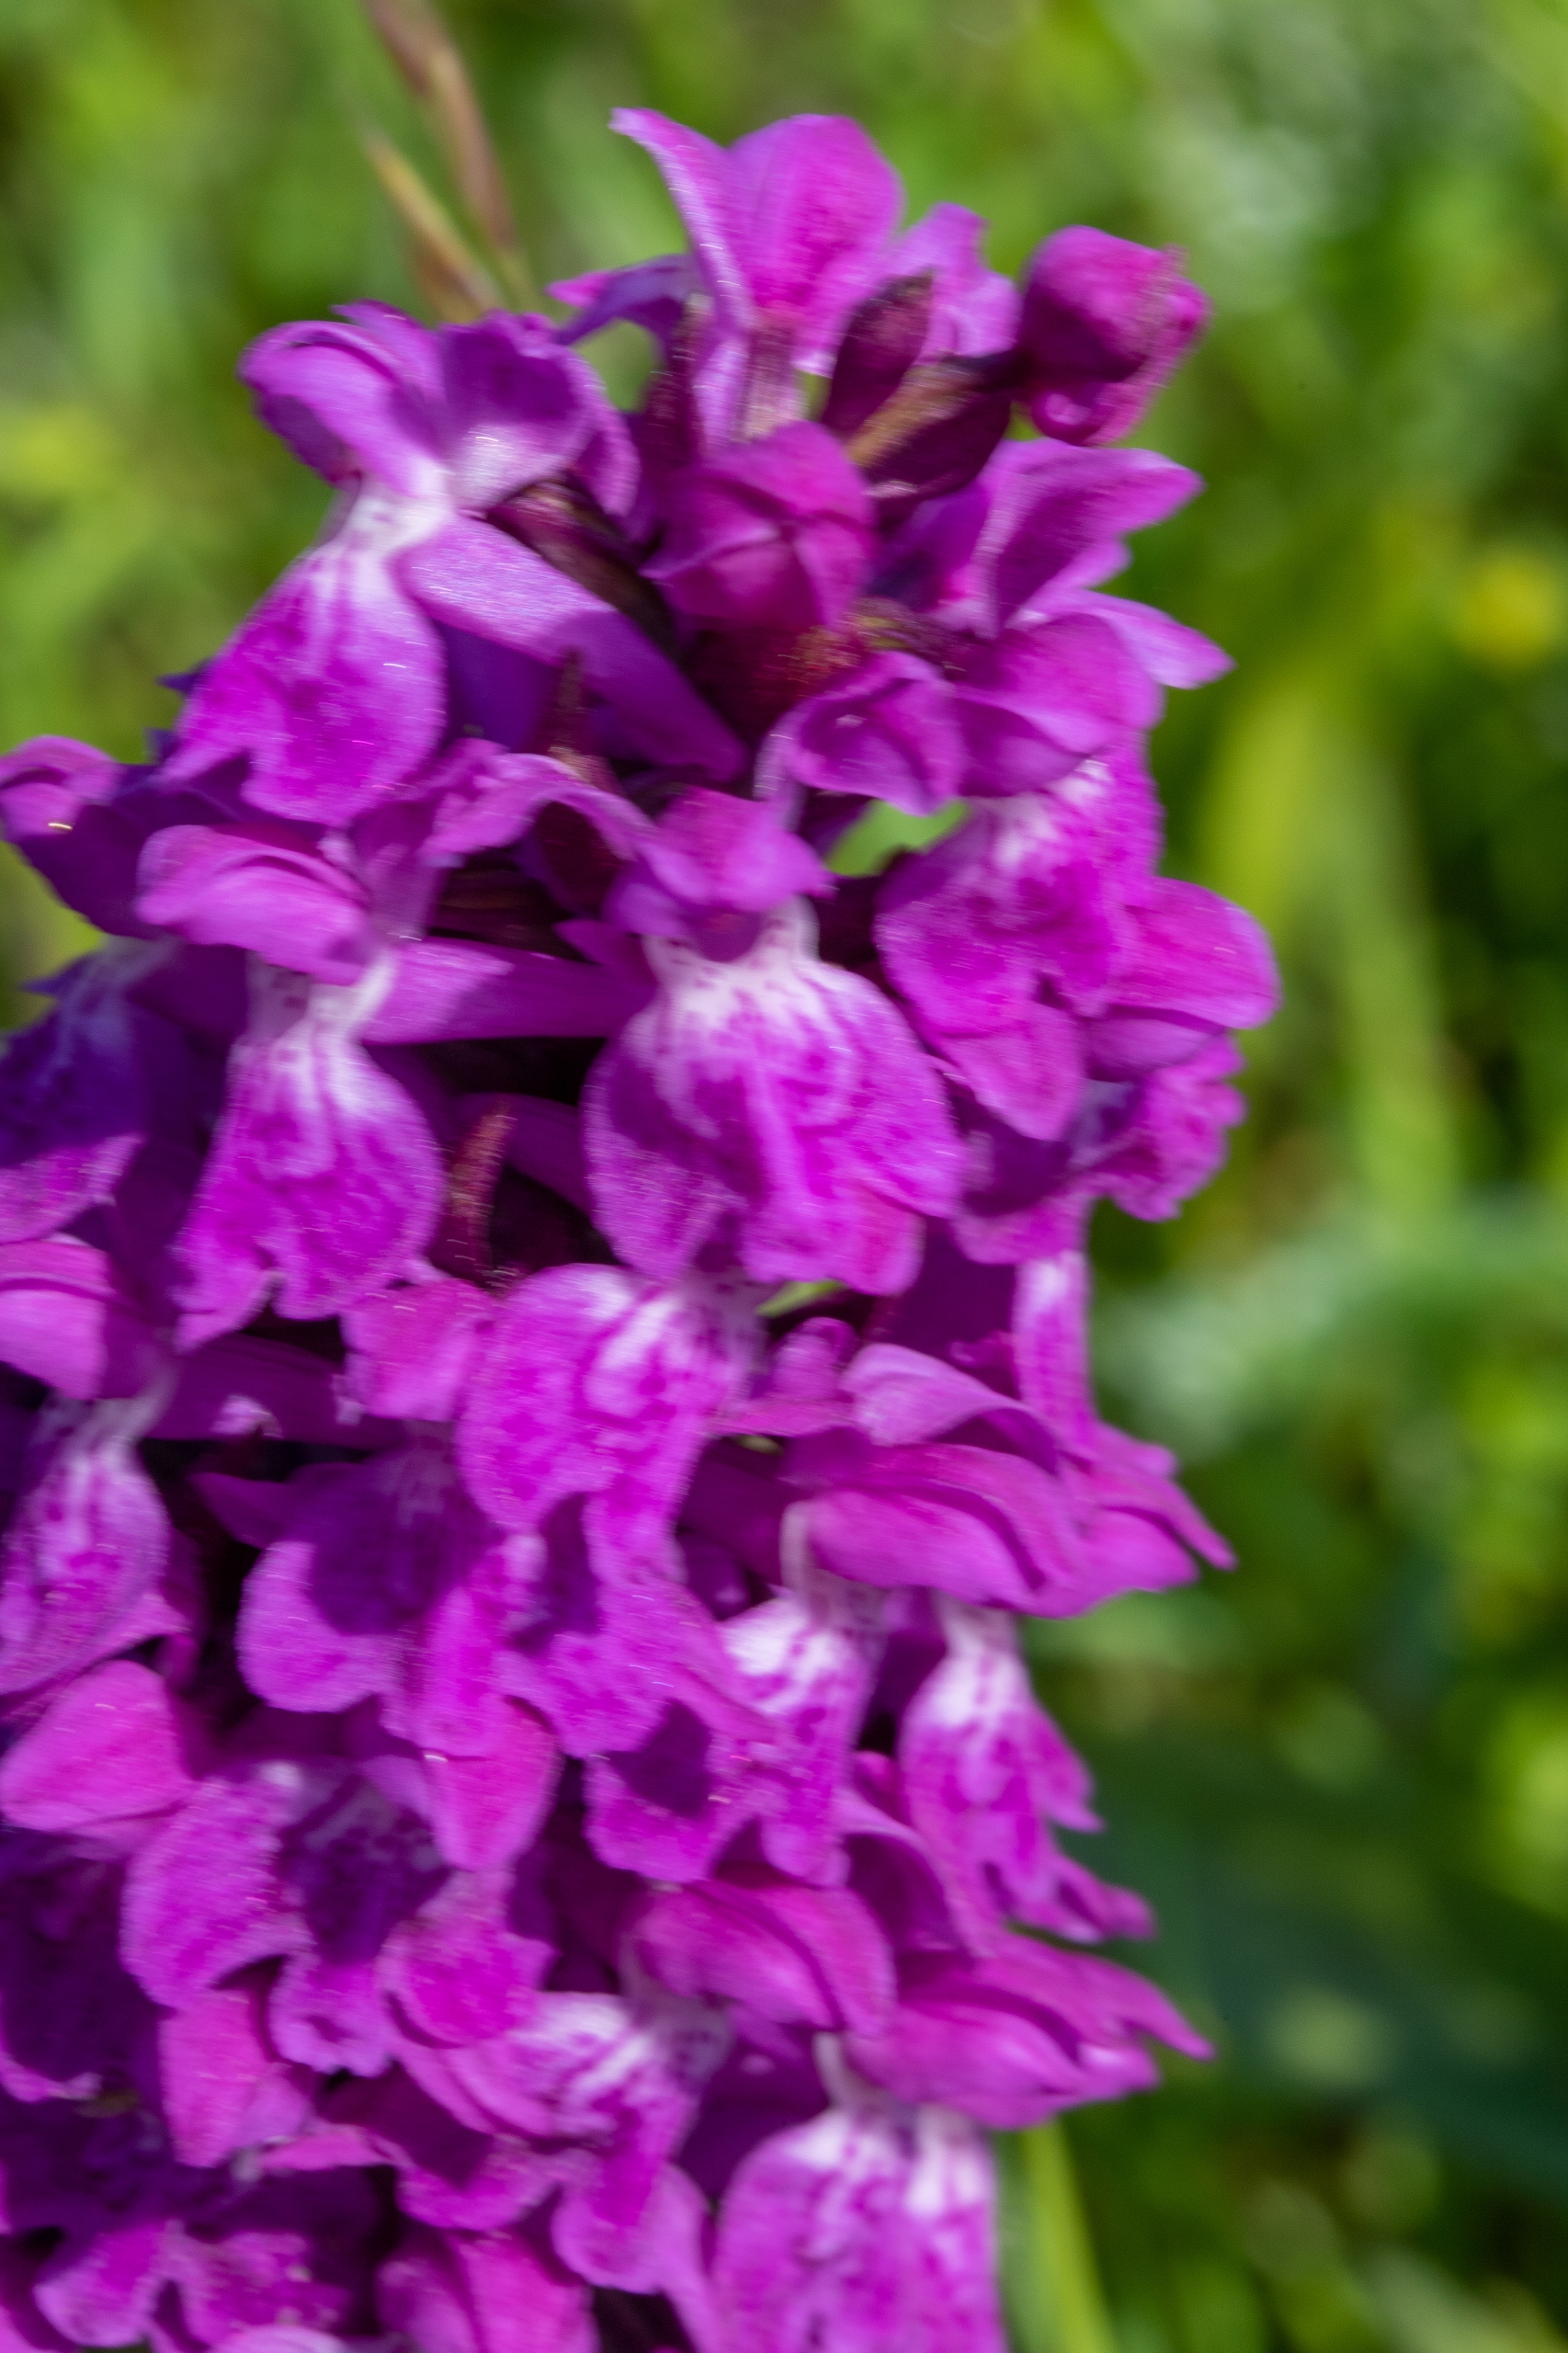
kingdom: Plantae
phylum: Tracheophyta
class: Liliopsida
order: Asparagales
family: Orchidaceae
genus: Dactylorhiza
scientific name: Dactylorhiza majalis
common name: Maj-gøgeurt
